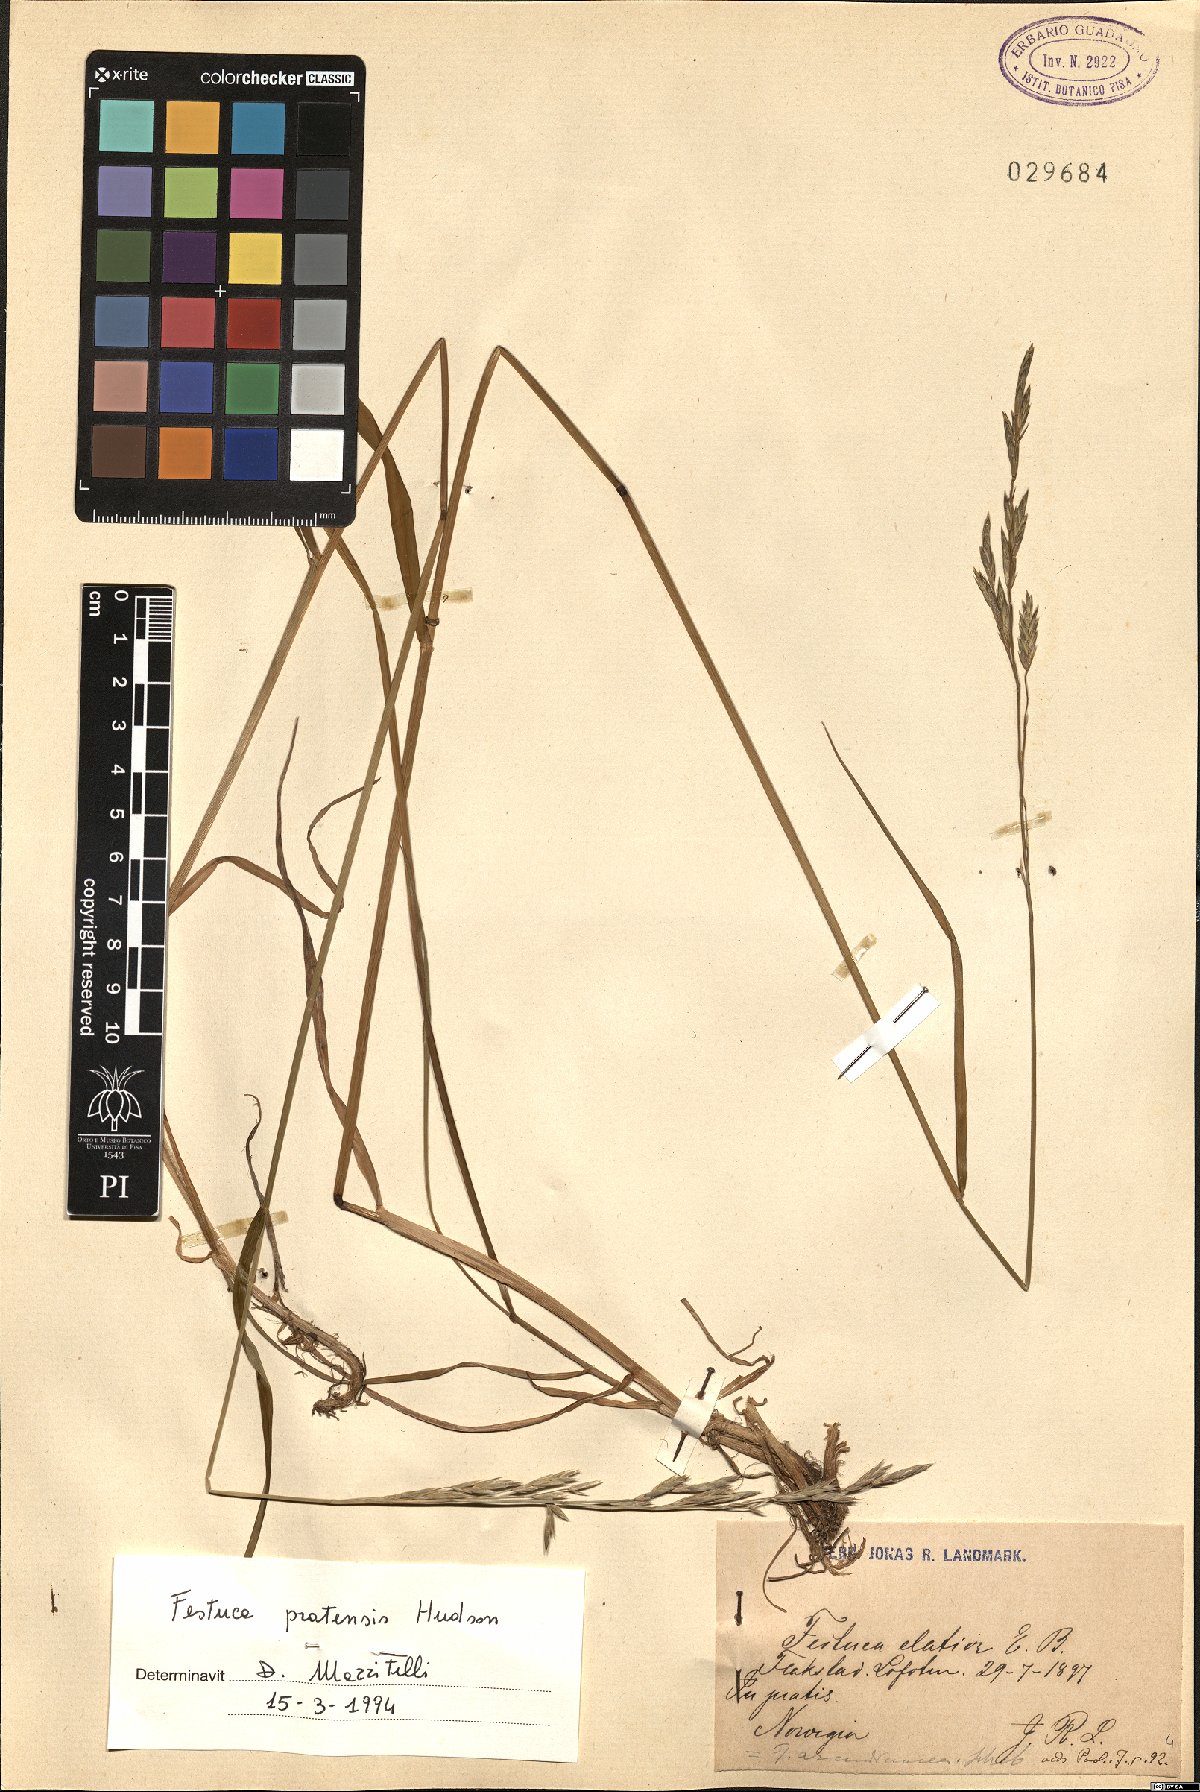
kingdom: Plantae
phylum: Tracheophyta
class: Liliopsida
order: Poales
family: Poaceae
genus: Lolium
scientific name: Lolium pratense
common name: Dover grass
